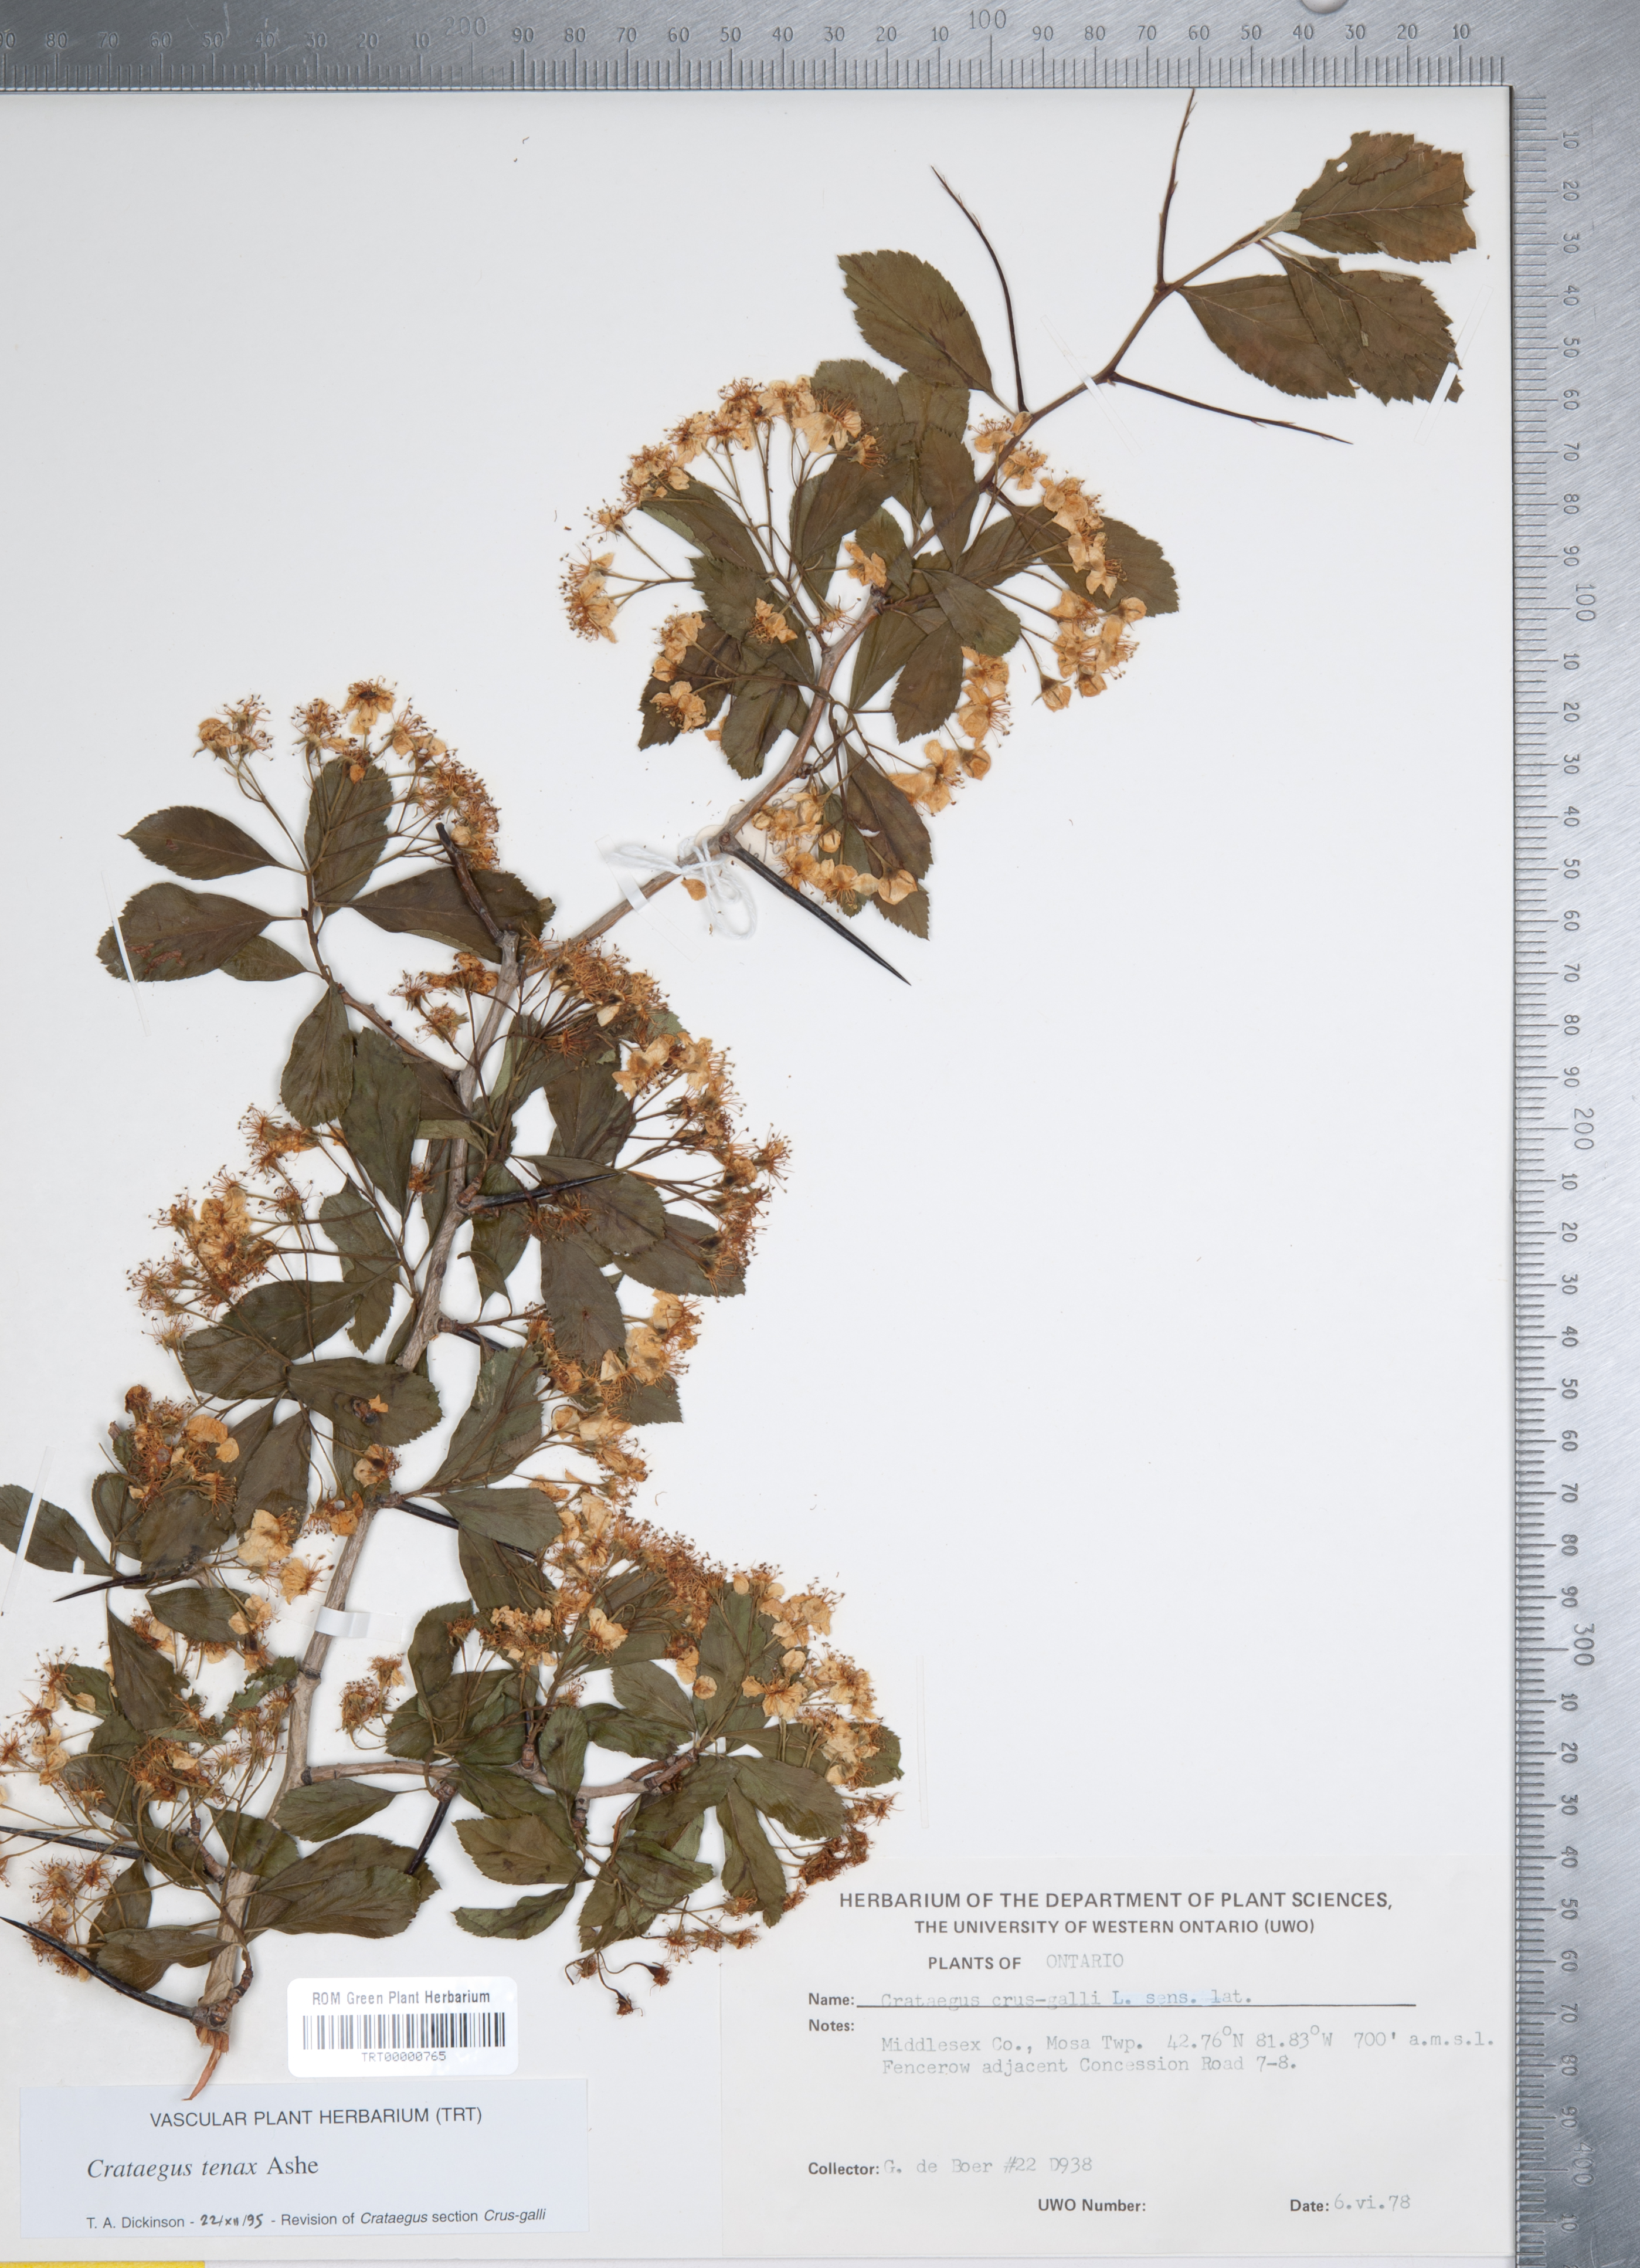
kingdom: Plantae
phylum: Tracheophyta
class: Magnoliopsida
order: Rosales
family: Rosaceae
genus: Crataegus
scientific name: Crataegus crus-galli
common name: Cockspurthorn
